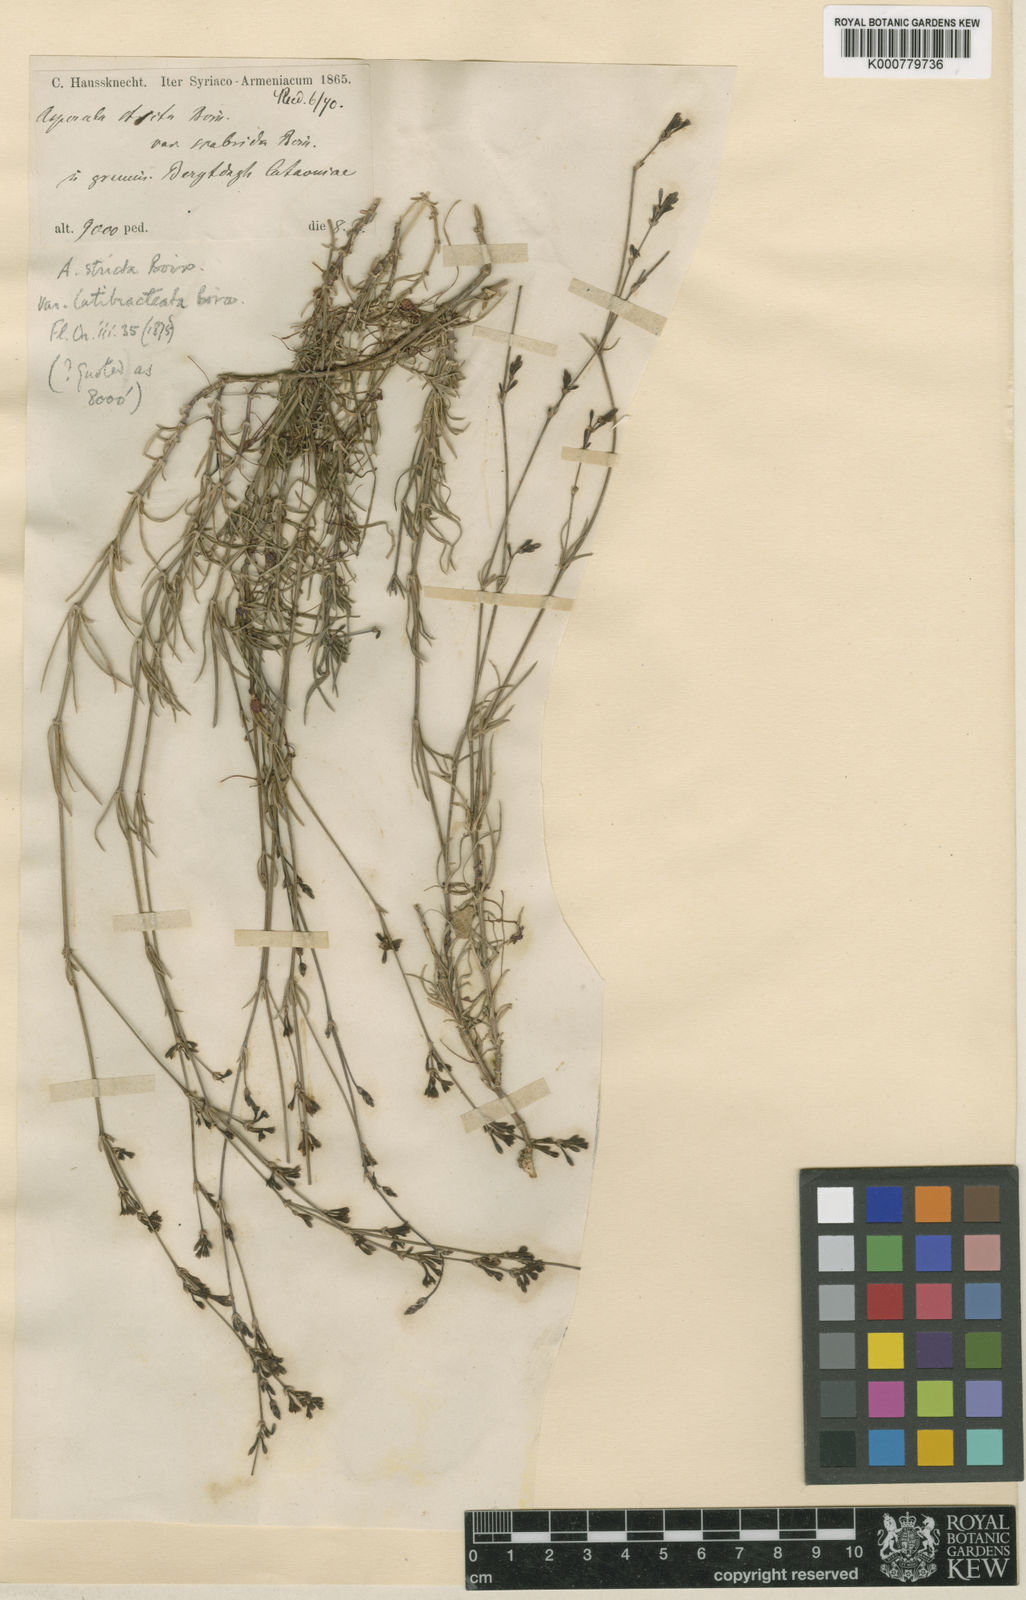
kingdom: Plantae
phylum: Tracheophyta
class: Magnoliopsida
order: Gentianales
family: Rubiaceae
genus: Cynanchica
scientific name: Cynanchica stricta
